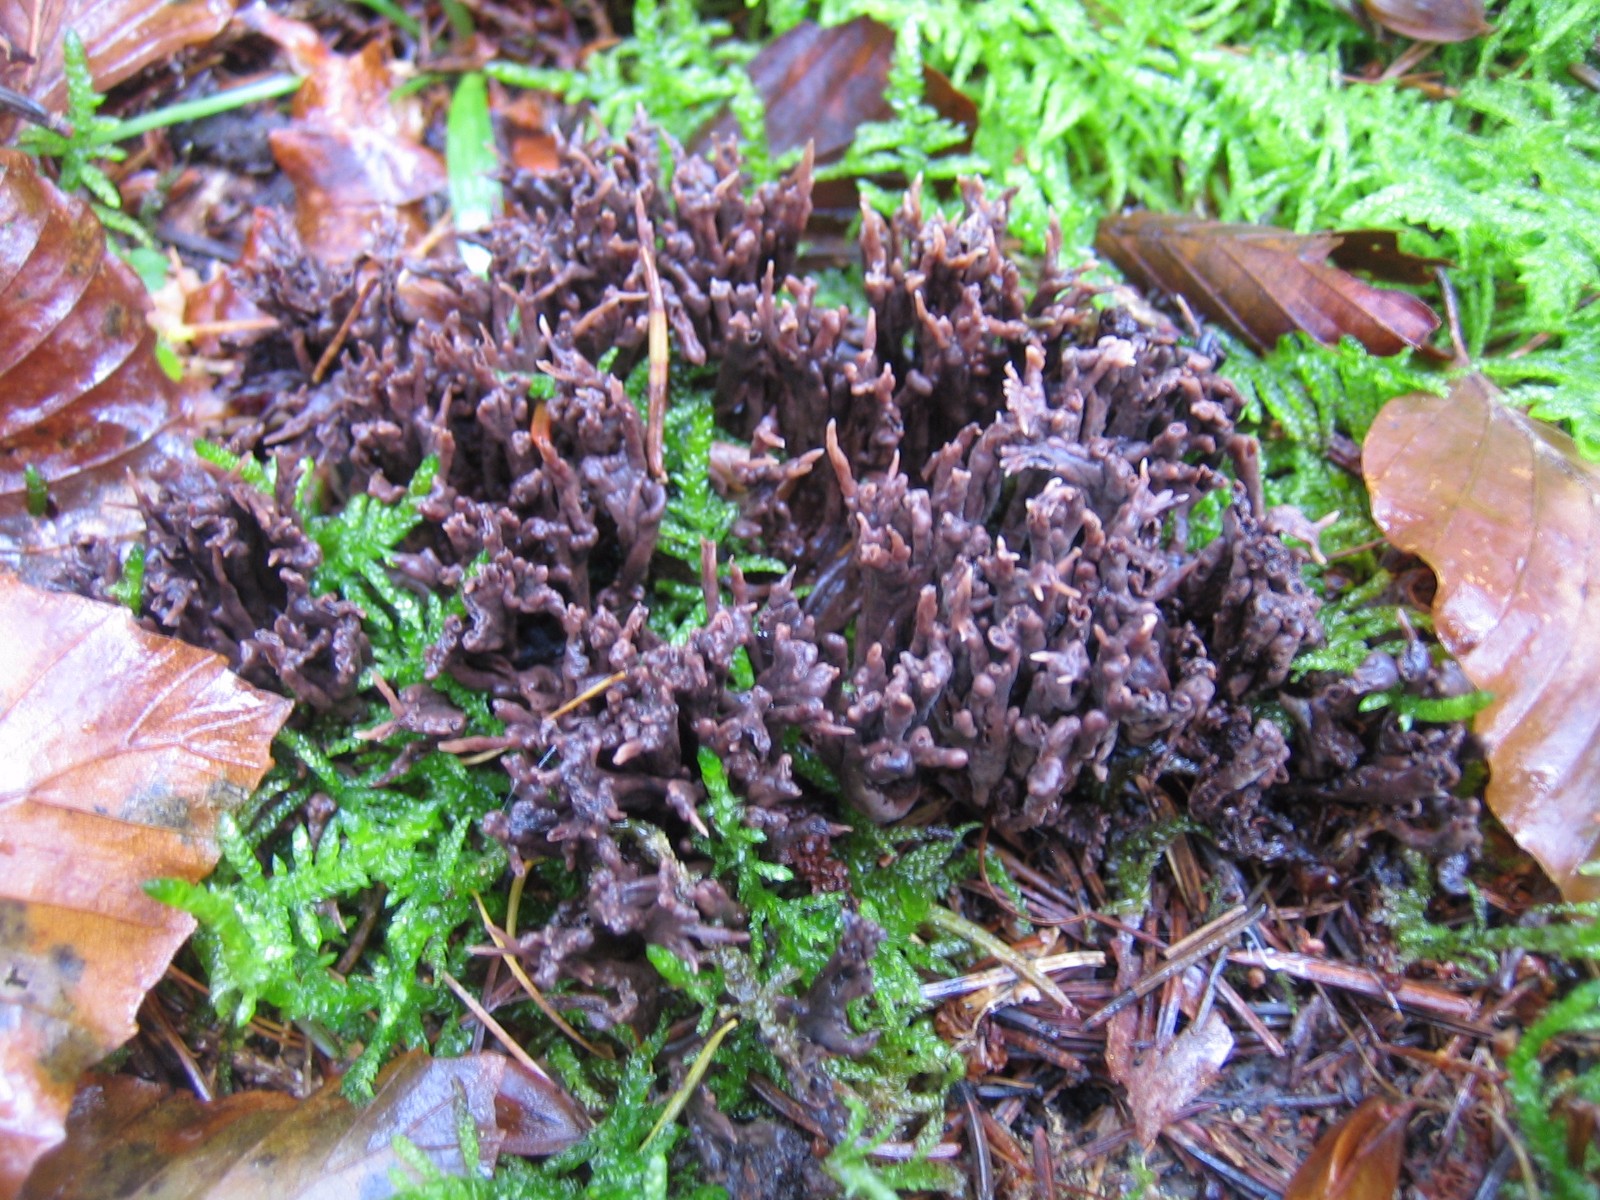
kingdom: Fungi
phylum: Basidiomycota
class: Agaricomycetes
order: Thelephorales
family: Thelephoraceae
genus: Thelephora
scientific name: Thelephora palmata
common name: grenet frynsesvamp
